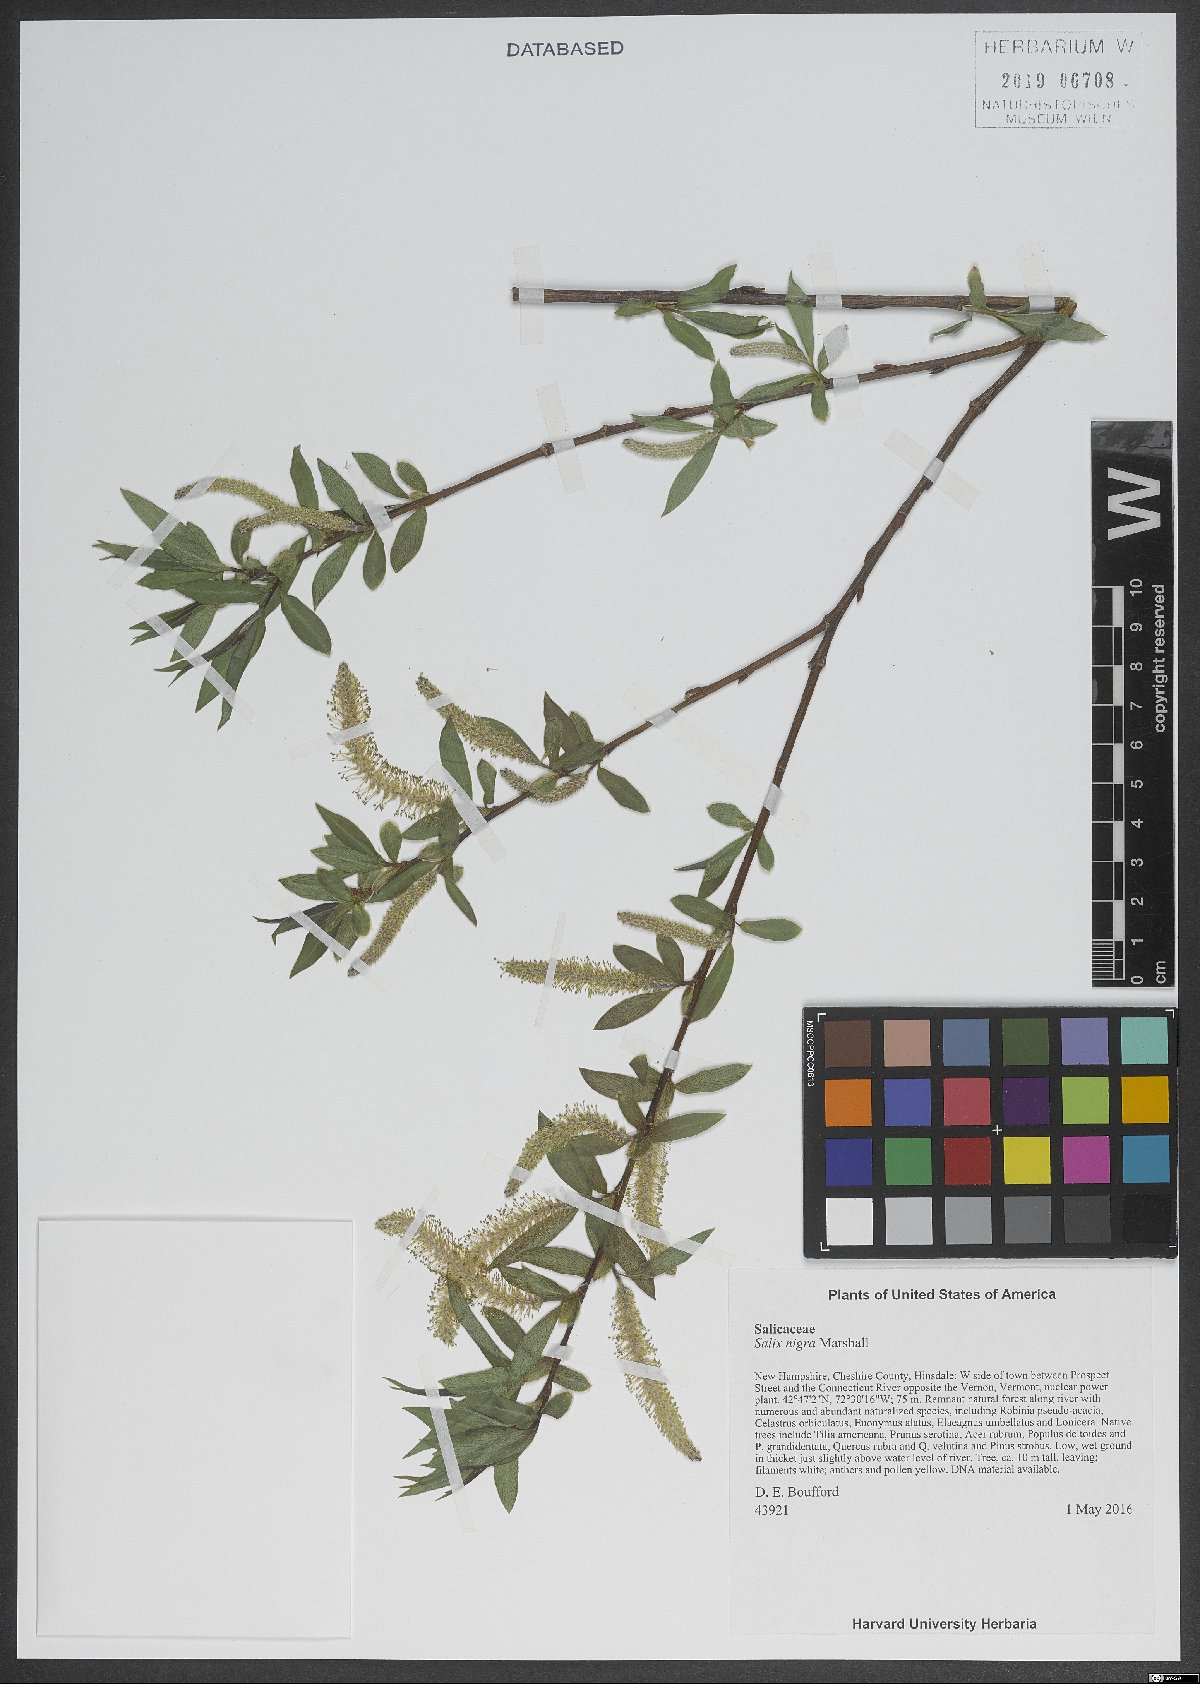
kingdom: Plantae
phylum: Tracheophyta
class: Magnoliopsida
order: Malpighiales
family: Salicaceae
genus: Salix
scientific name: Salix nigra
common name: Black willow
